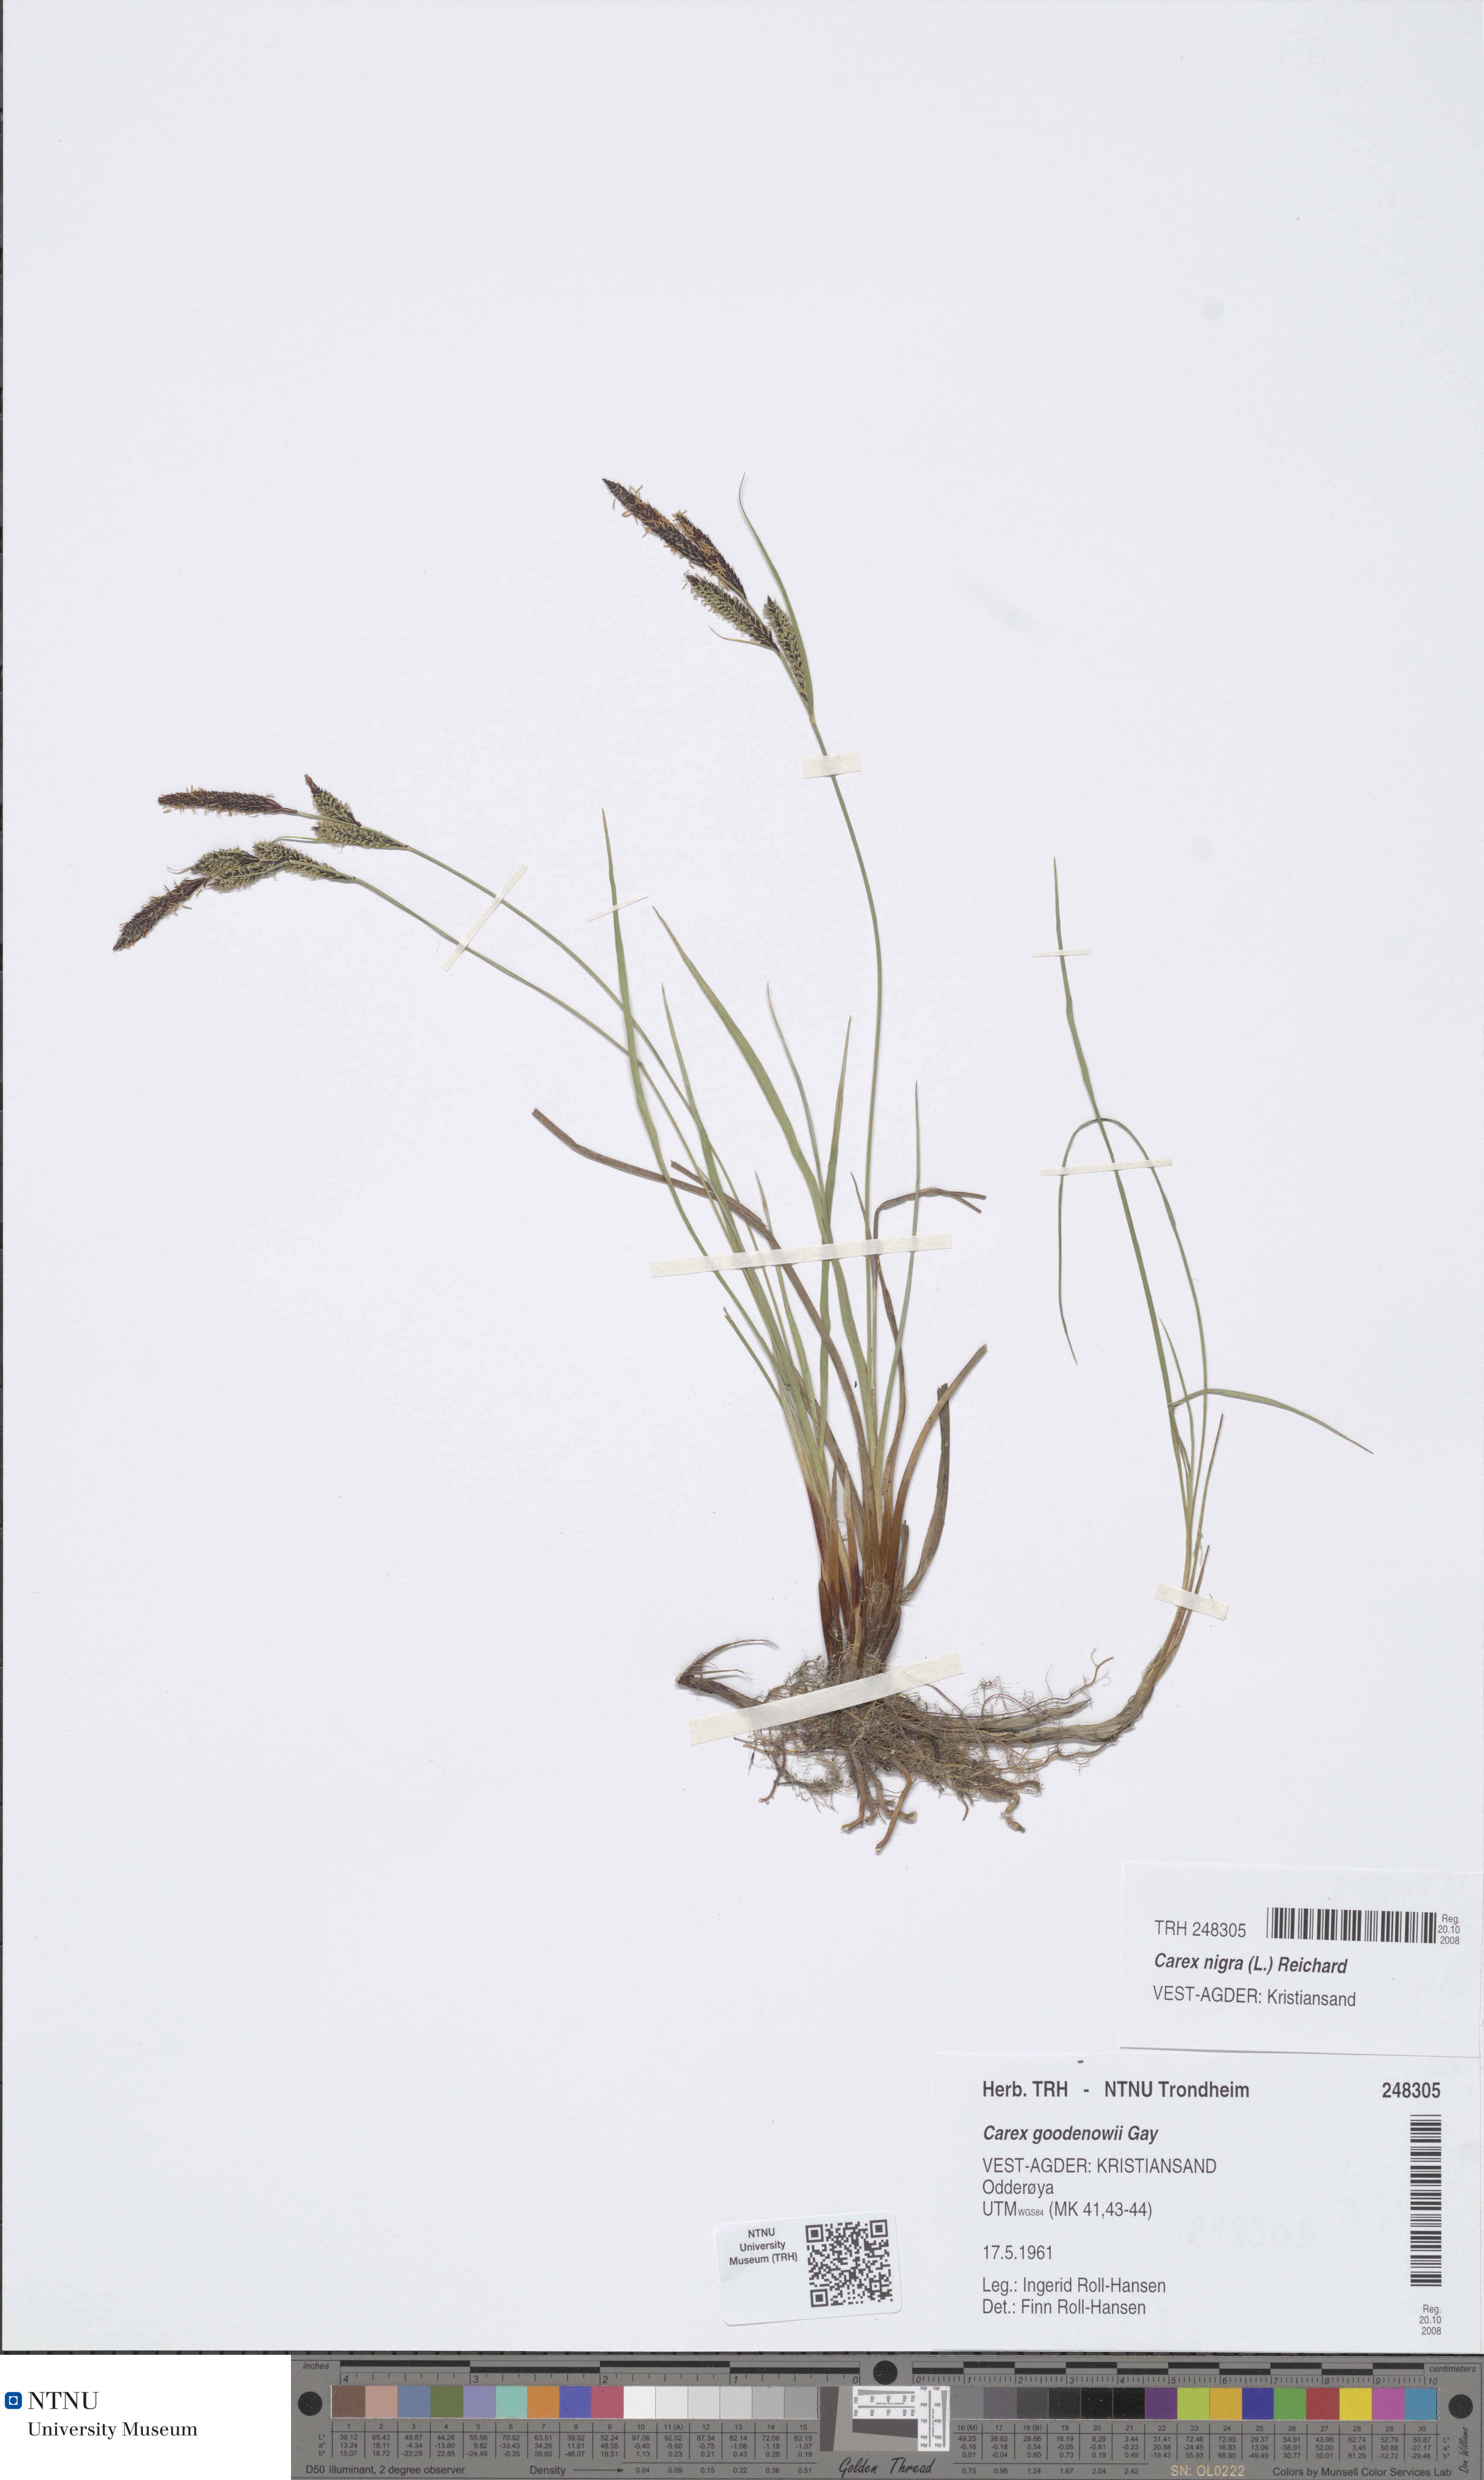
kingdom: Plantae
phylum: Tracheophyta
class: Liliopsida
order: Poales
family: Cyperaceae
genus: Carex
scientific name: Carex nigra
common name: Common sedge
